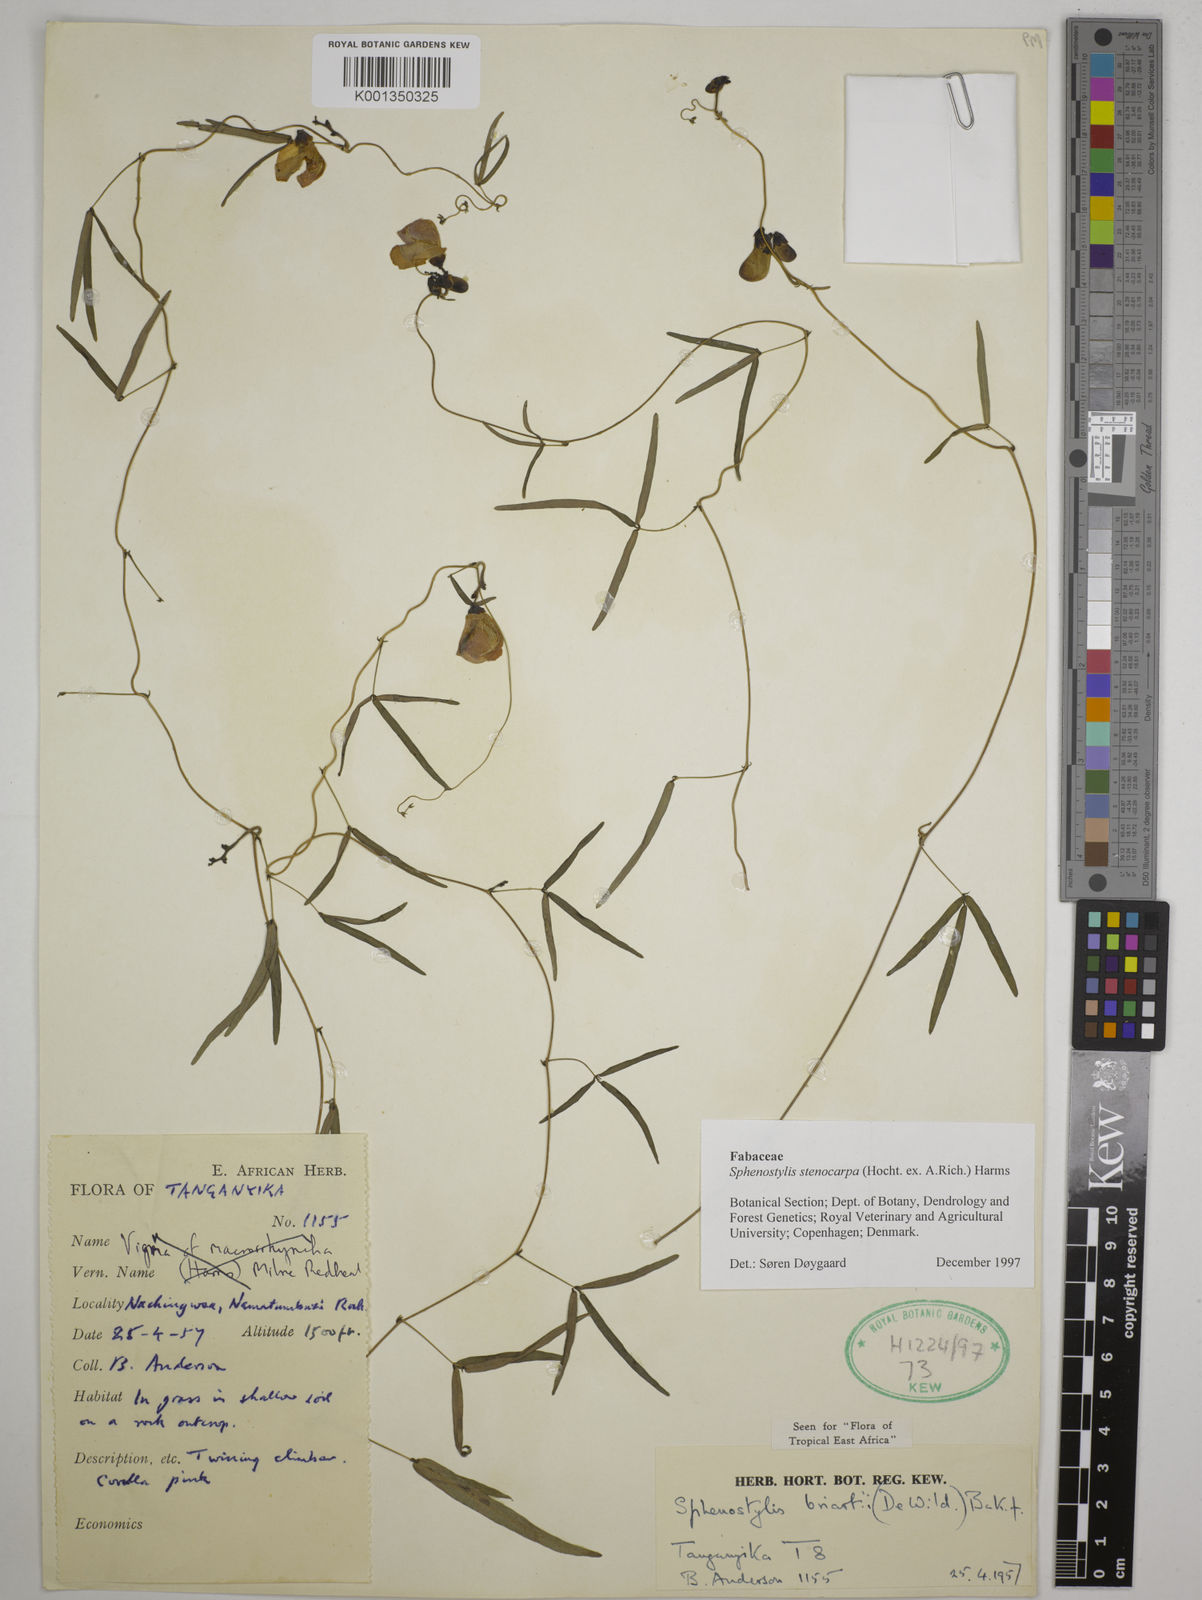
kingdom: Plantae
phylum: Tracheophyta
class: Magnoliopsida
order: Fabales
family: Fabaceae
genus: Sphenostylis
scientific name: Sphenostylis stenocarpa
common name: Yam-pea
